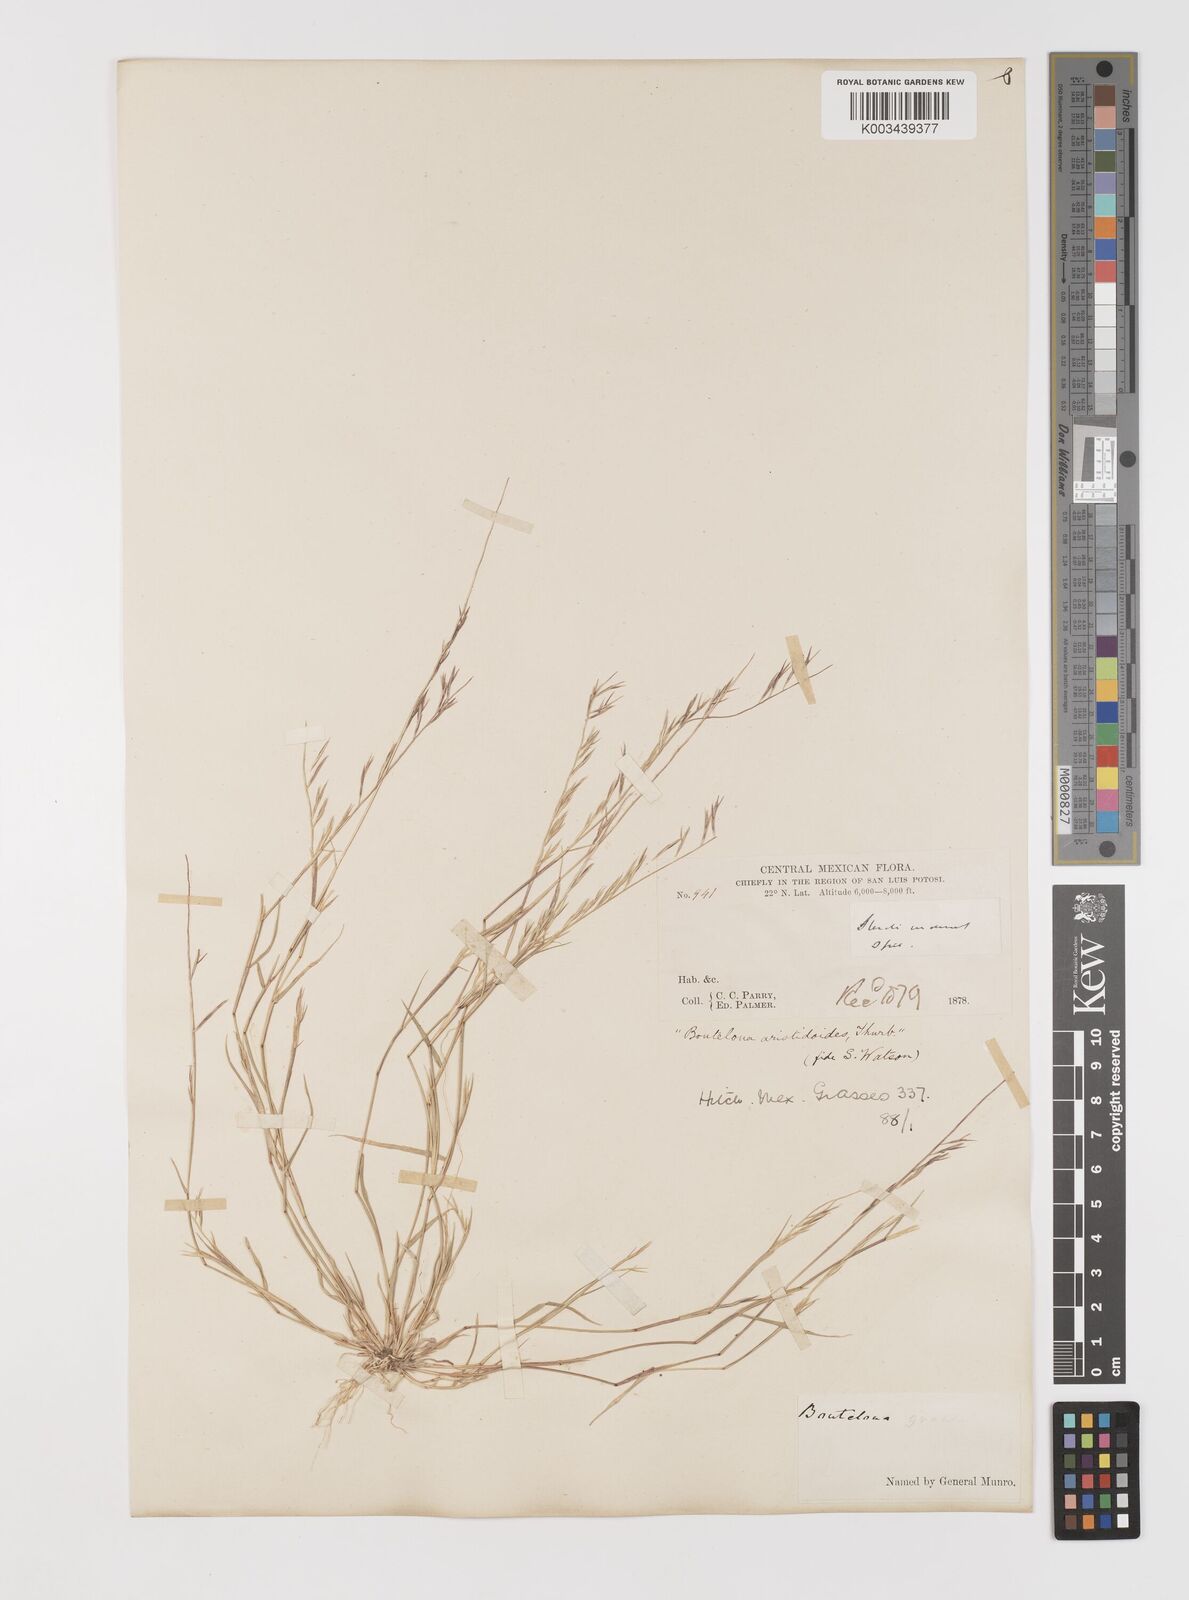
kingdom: Plantae
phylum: Tracheophyta
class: Liliopsida
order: Poales
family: Poaceae
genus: Bouteloua
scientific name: Bouteloua aristidoides
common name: Needle grama
